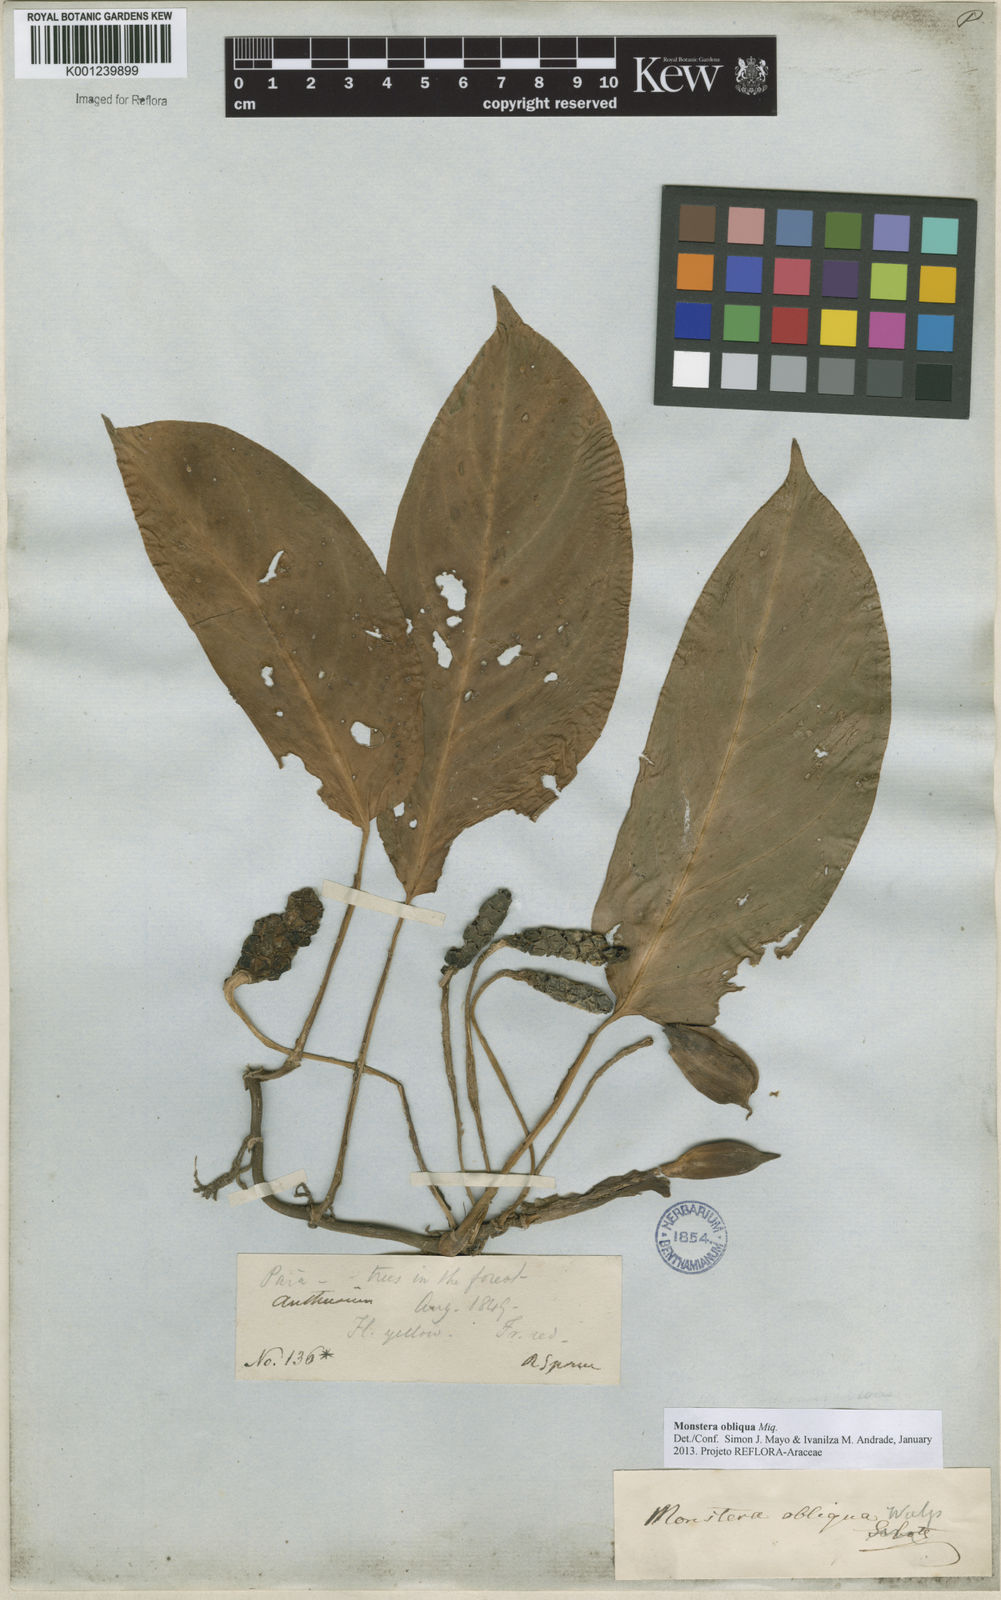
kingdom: Plantae
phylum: Tracheophyta
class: Liliopsida
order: Alismatales
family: Araceae
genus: Monstera
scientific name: Monstera obliqua
